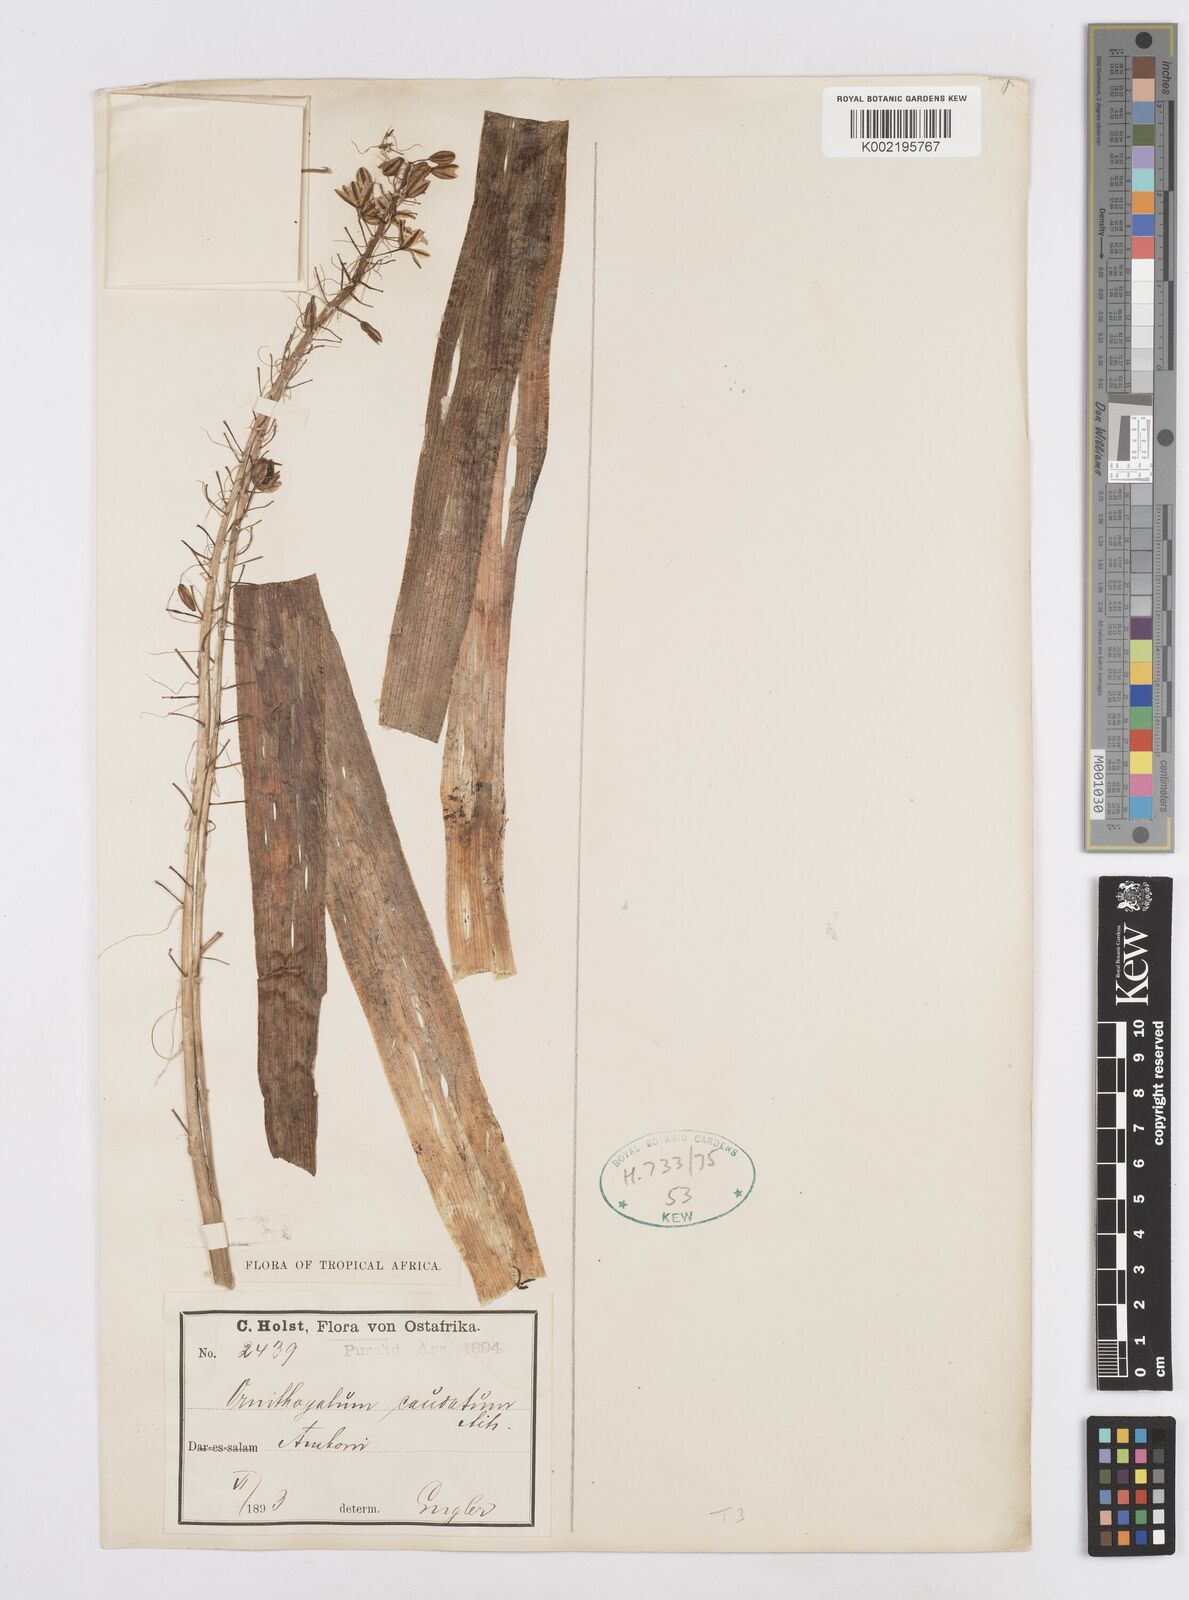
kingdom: Plantae
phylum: Tracheophyta
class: Liliopsida
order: Asparagales
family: Asparagaceae
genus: Albuca
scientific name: Albuca virens
